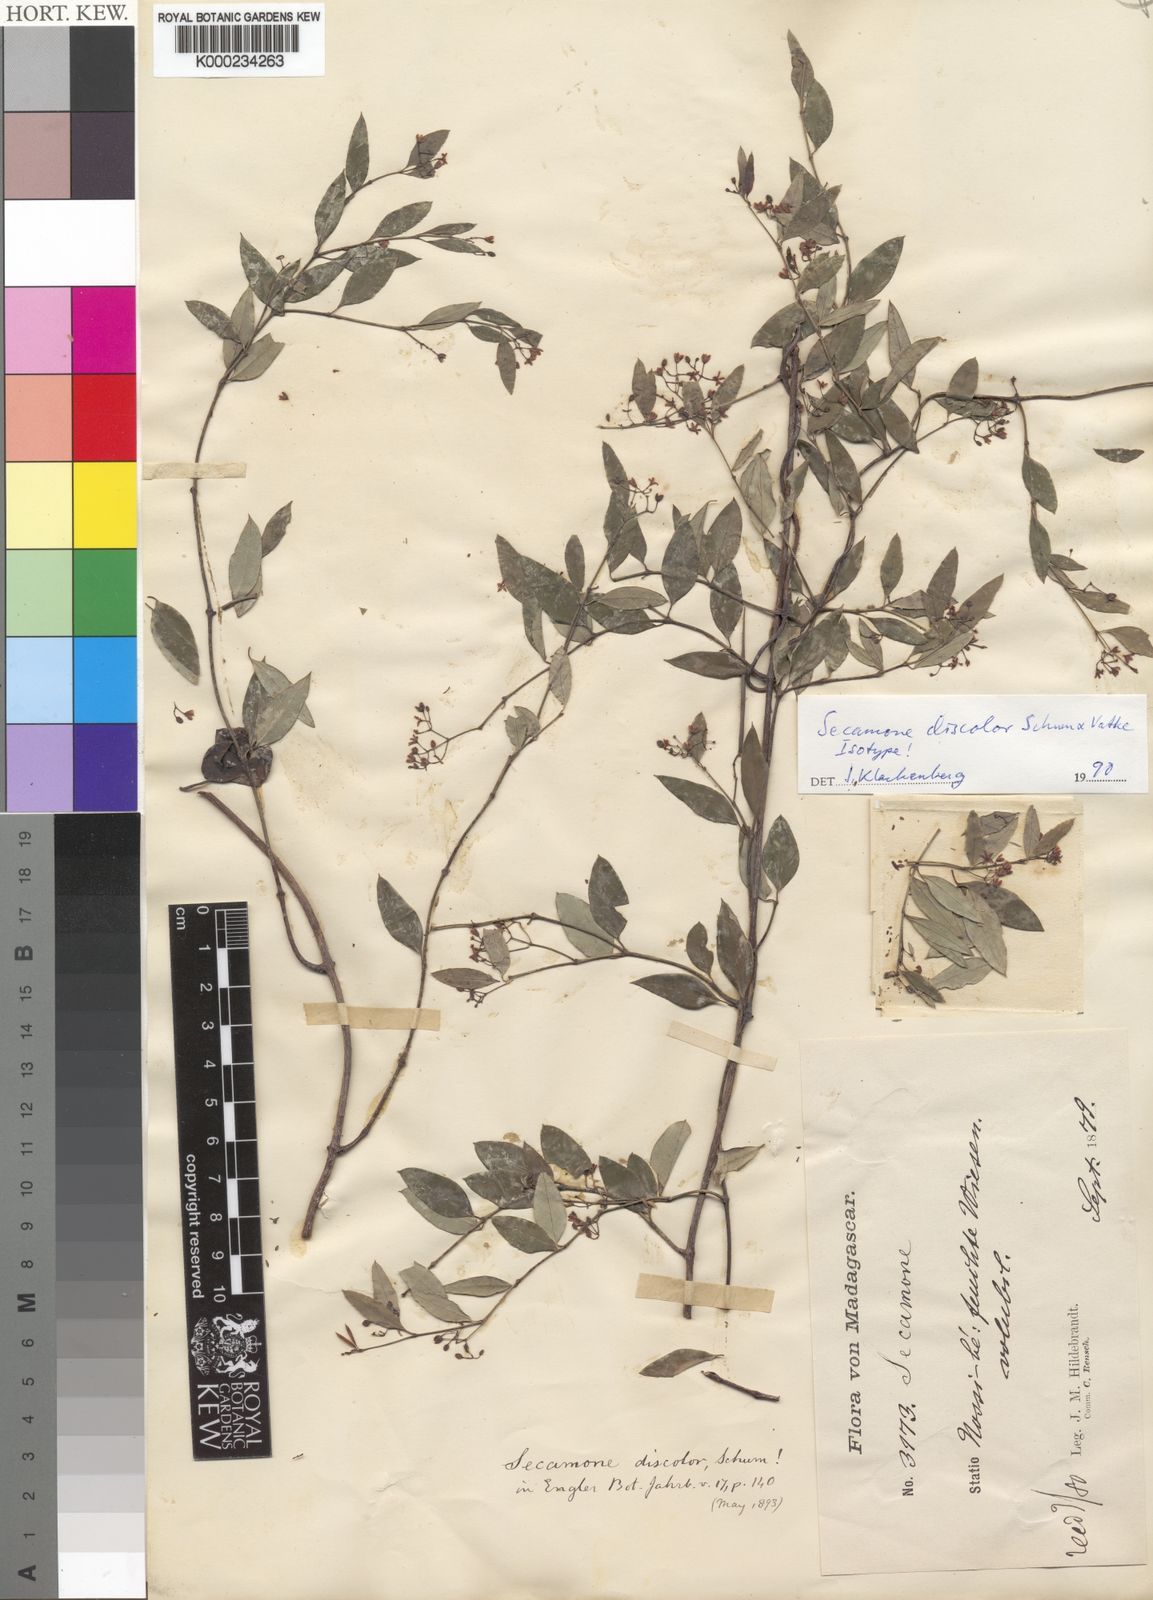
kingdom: Plantae
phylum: Tracheophyta
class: Magnoliopsida
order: Gentianales
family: Apocynaceae
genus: Secamone
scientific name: Secamone discolor
